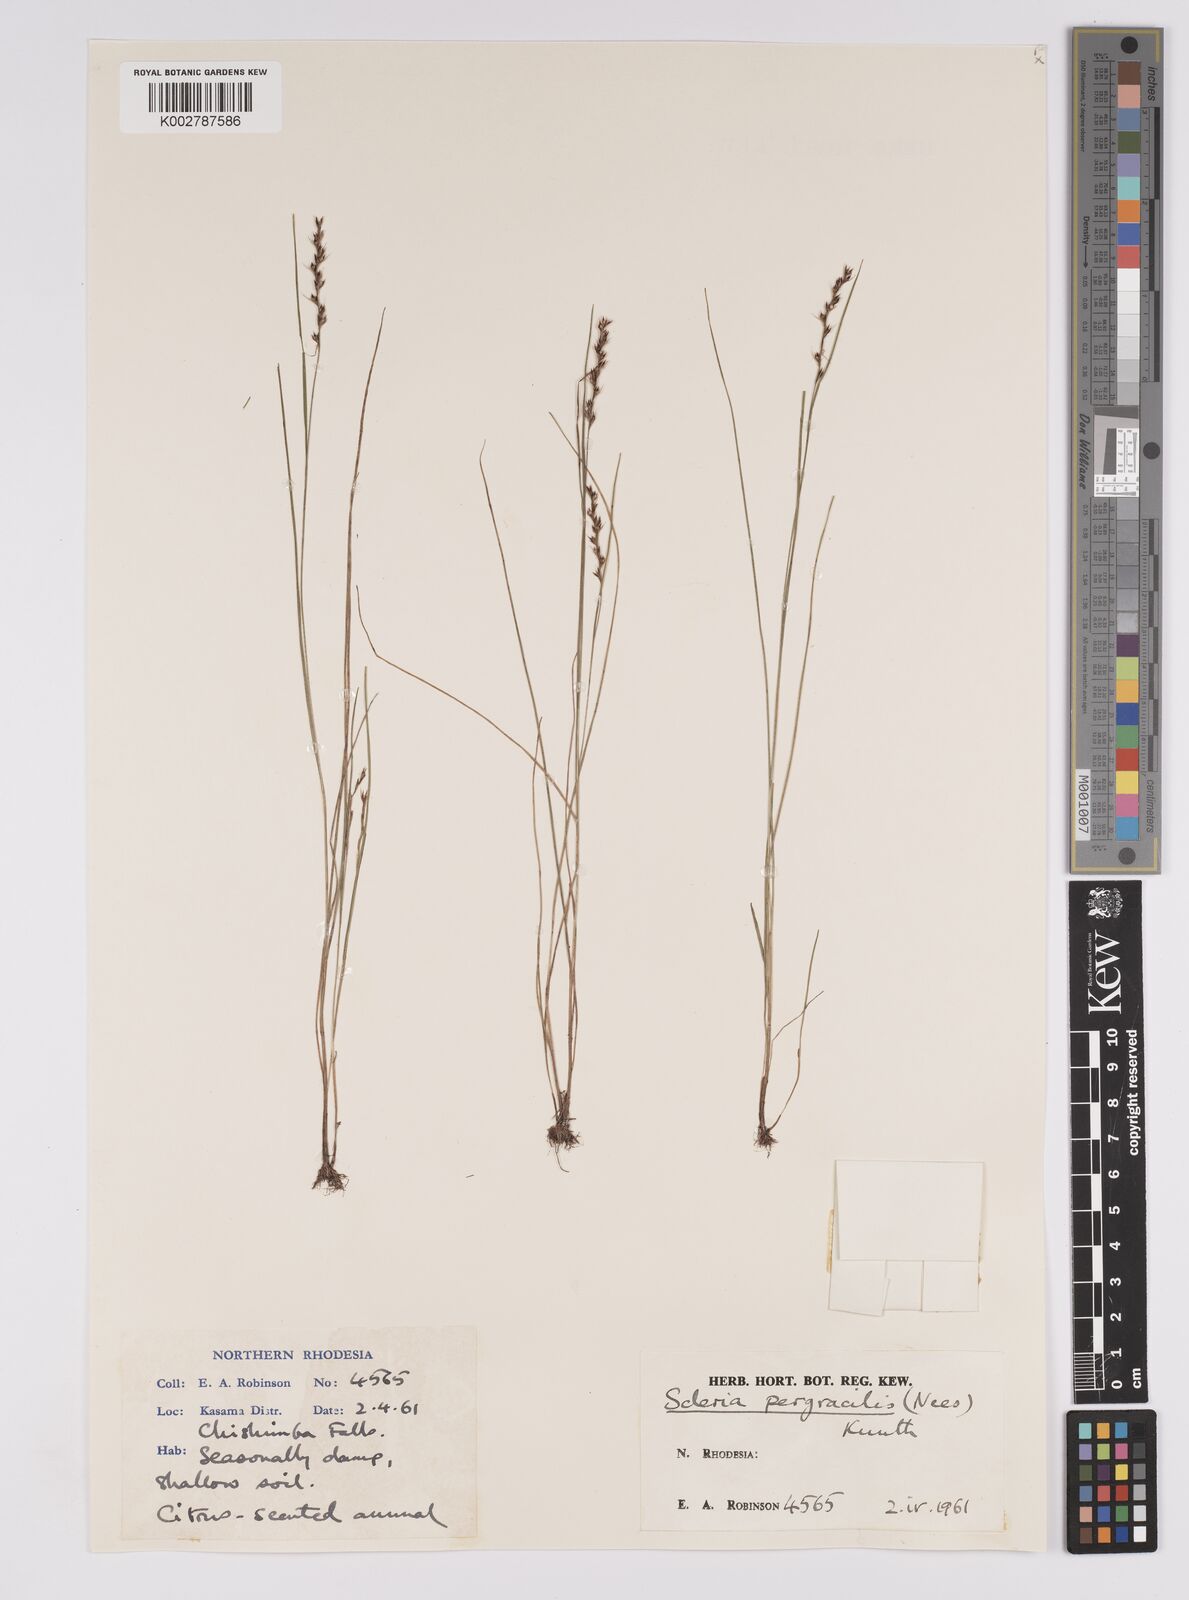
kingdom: Plantae
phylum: Tracheophyta
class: Liliopsida
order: Poales
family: Cyperaceae
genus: Scleria
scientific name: Scleria pergracilis
